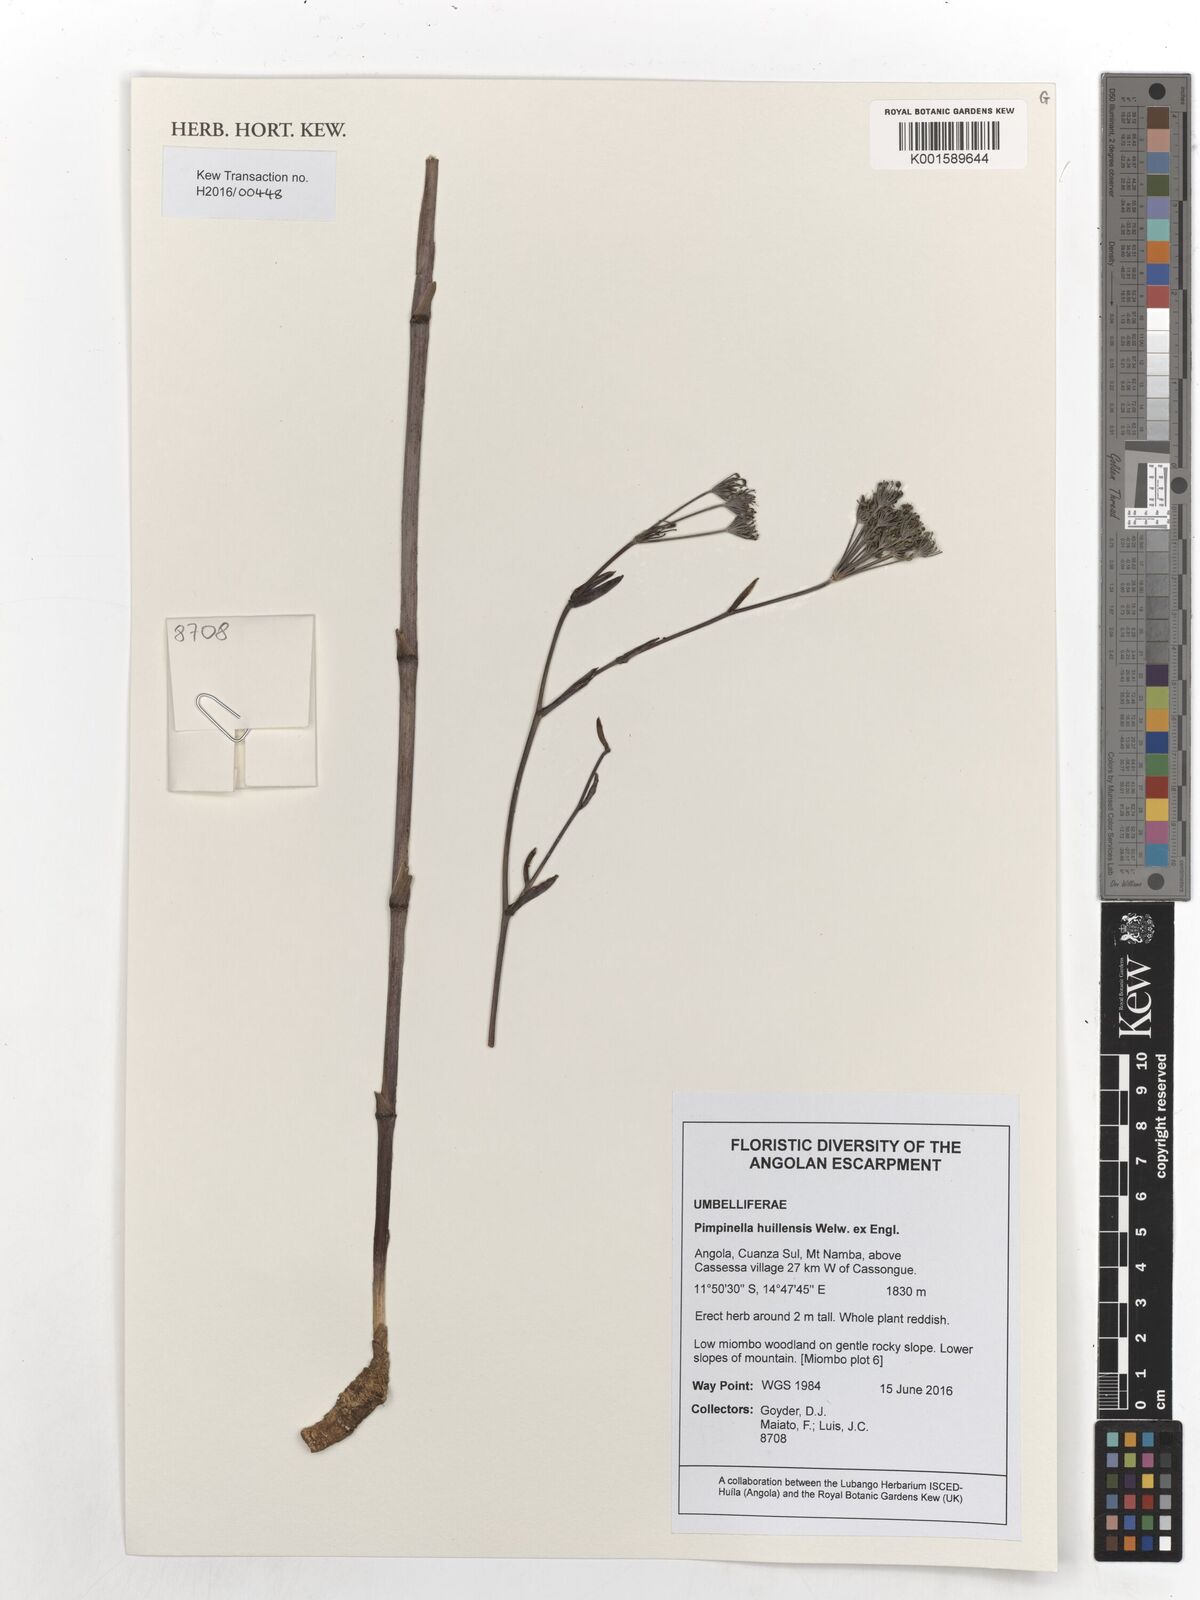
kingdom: Plantae
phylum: Tracheophyta
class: Magnoliopsida
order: Apiales
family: Apiaceae
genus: Pimpinella
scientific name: Pimpinella huillensis
